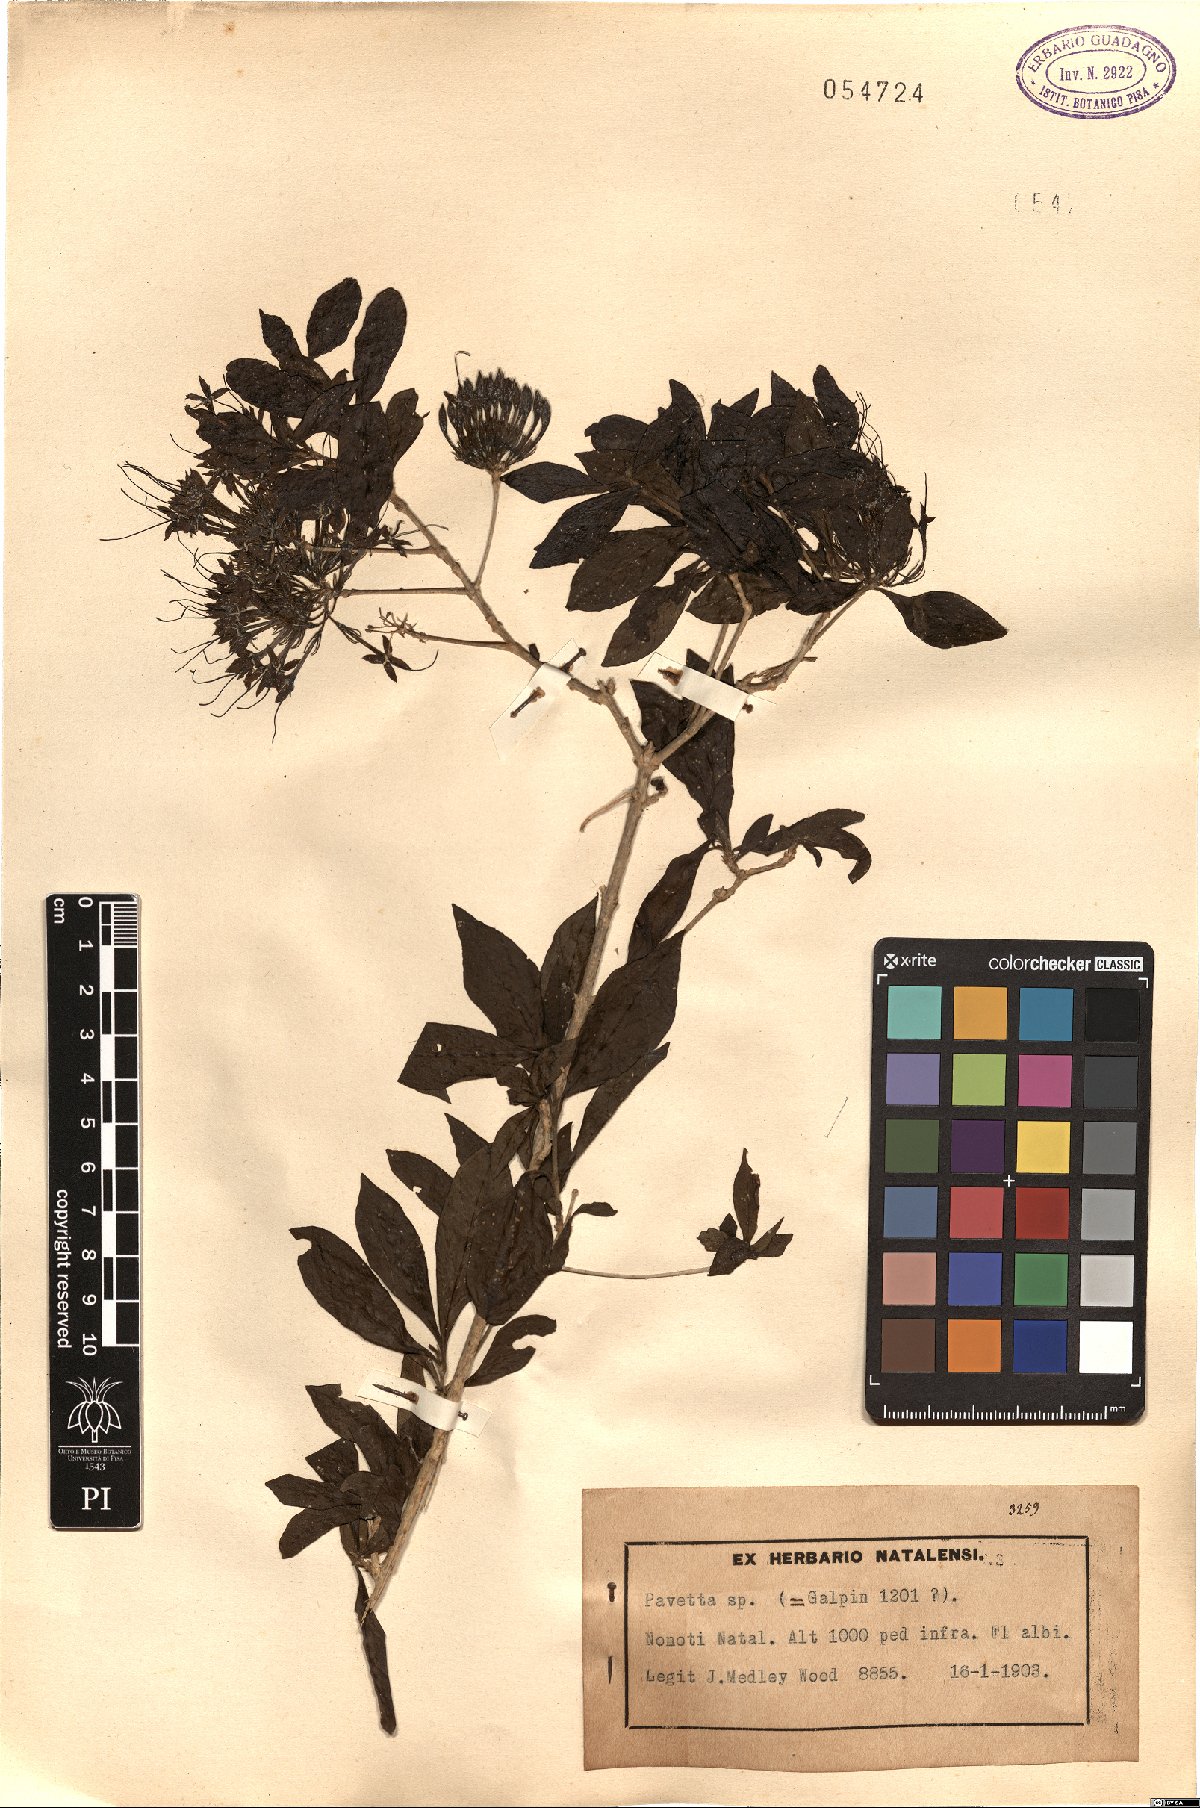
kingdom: Plantae
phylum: Tracheophyta
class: Magnoliopsida
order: Gentianales
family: Rubiaceae
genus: Pavetta
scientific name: Pavetta
